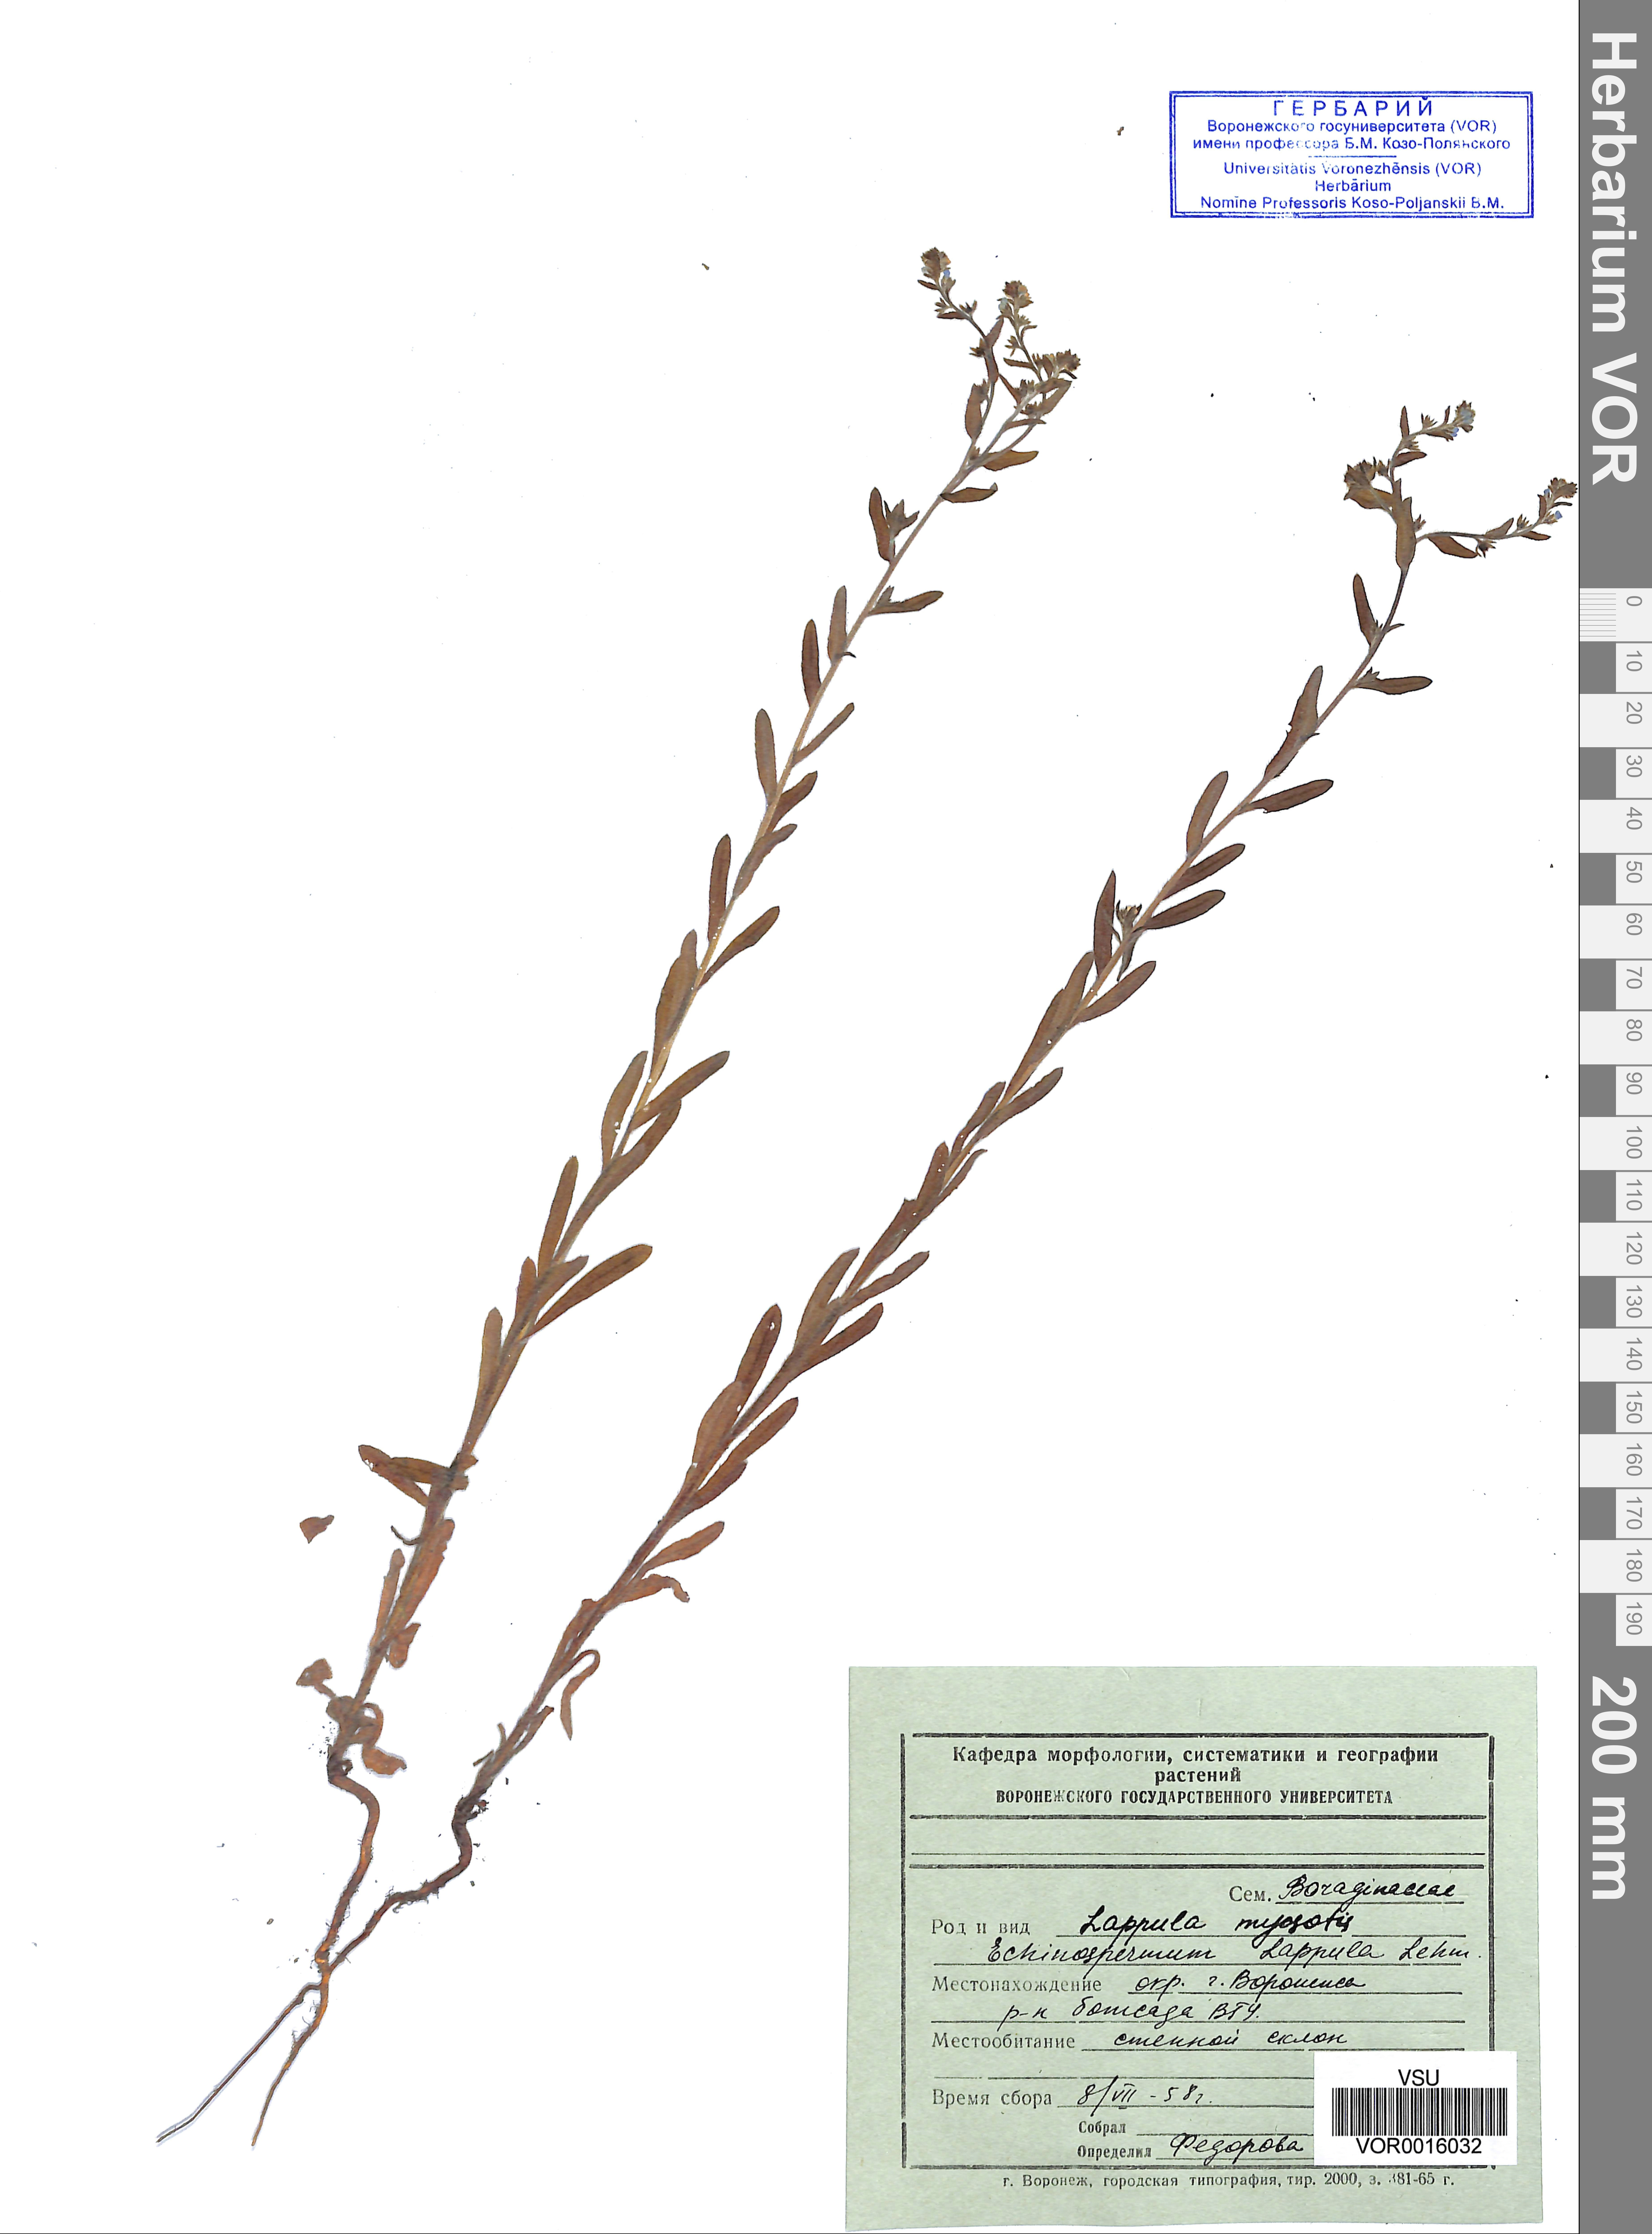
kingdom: Plantae
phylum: Tracheophyta
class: Magnoliopsida
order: Boraginales
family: Boraginaceae
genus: Lappula
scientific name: Lappula squarrosa
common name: European stickseed
